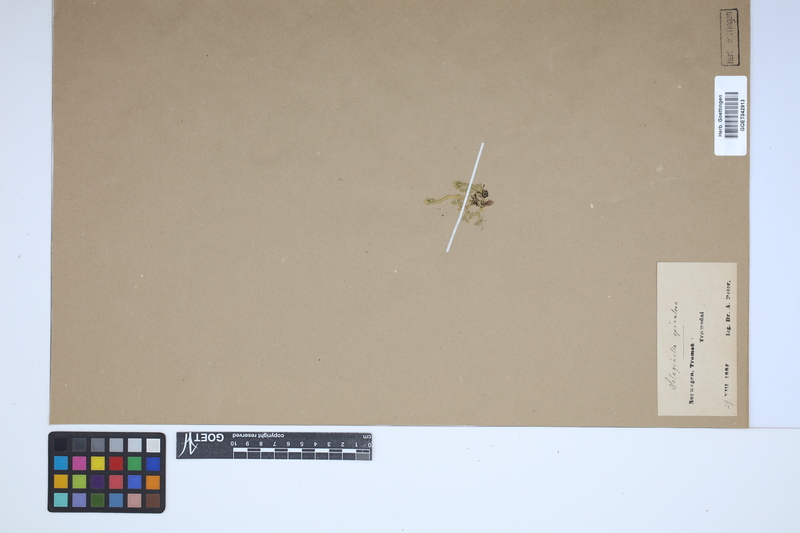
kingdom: Plantae
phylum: Tracheophyta
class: Lycopodiopsida
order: Selaginellales
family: Selaginellaceae
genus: Selaginella
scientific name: Selaginella selaginoides
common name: Prickly mountain-moss
